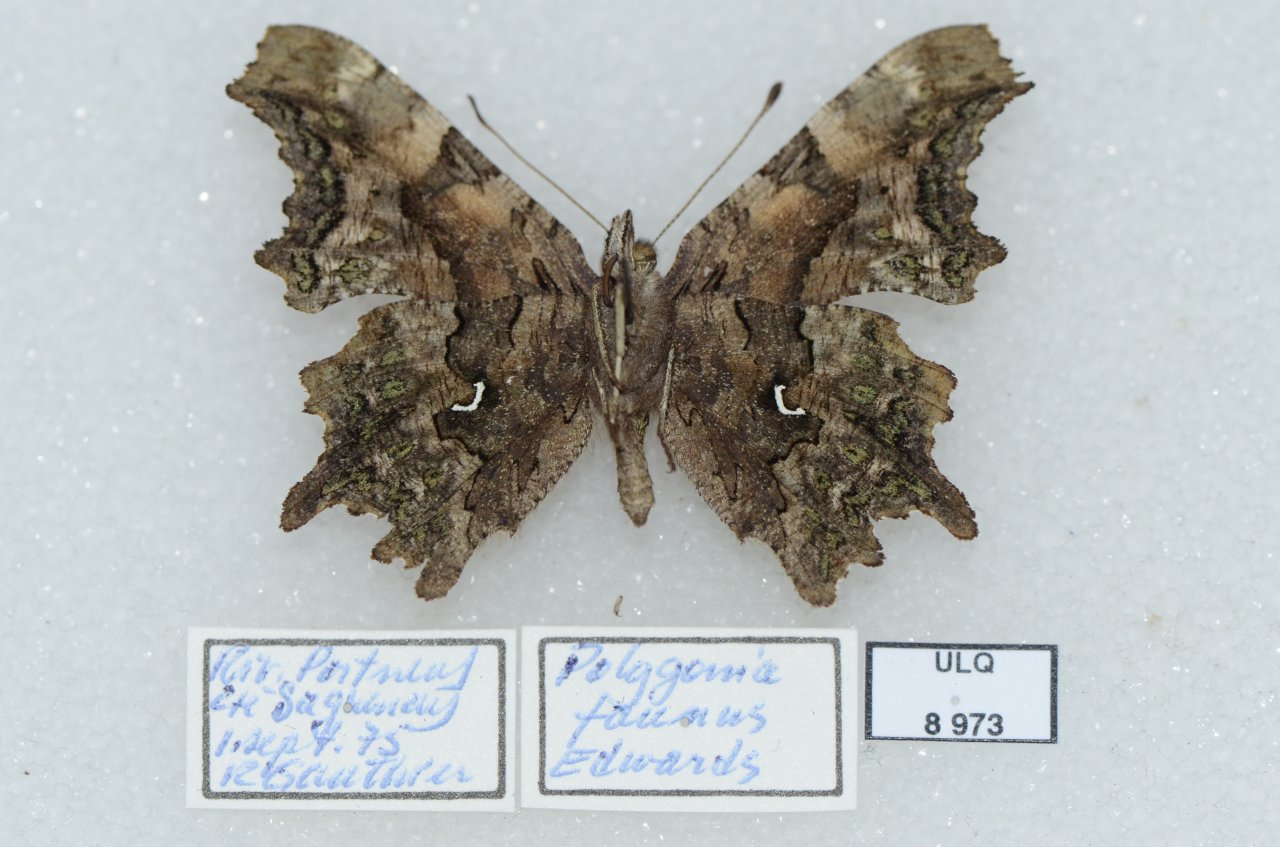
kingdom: Animalia
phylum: Arthropoda
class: Insecta
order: Lepidoptera
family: Nymphalidae
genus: Polygonia
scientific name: Polygonia faunus
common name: Green Comma
